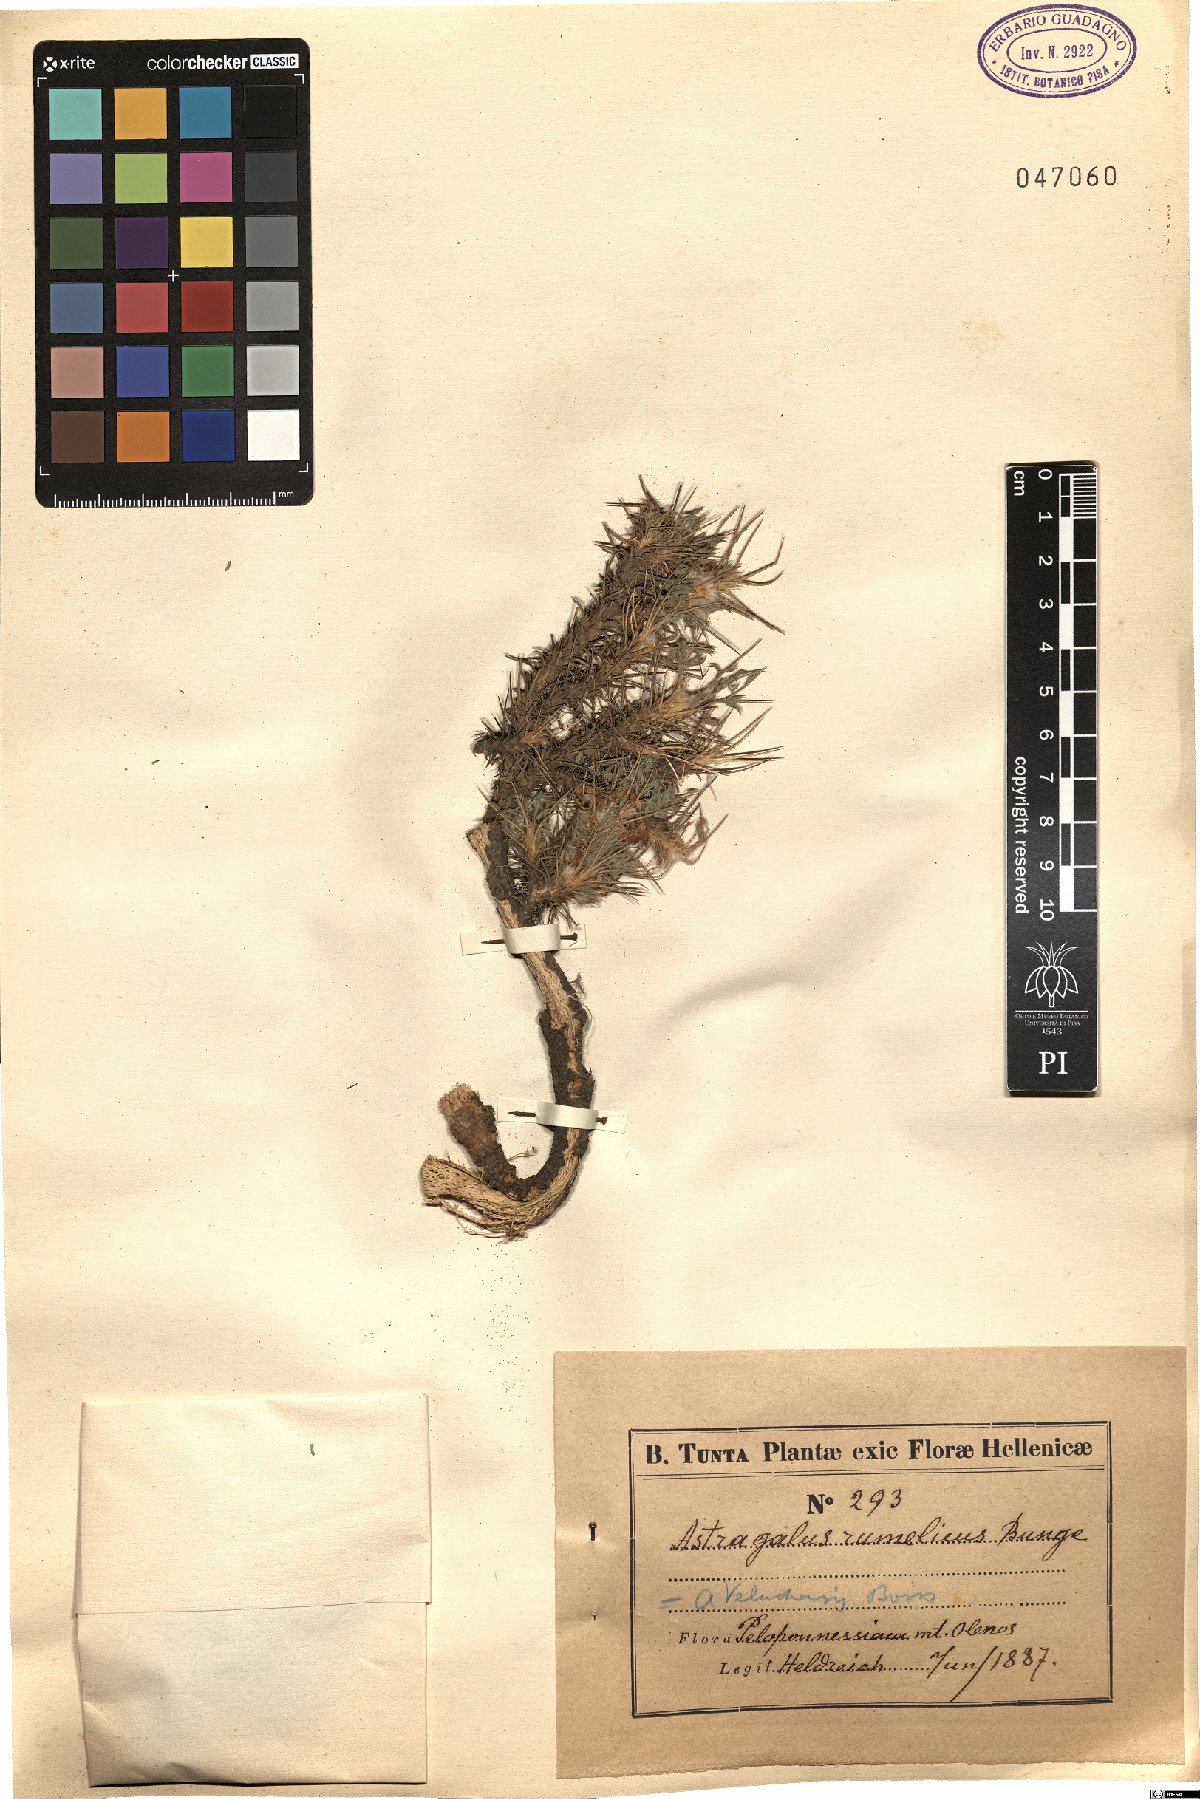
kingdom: Plantae
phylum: Tracheophyta
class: Magnoliopsida
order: Fabales
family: Fabaceae
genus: Astragalus
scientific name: Astragalus rumelicus
